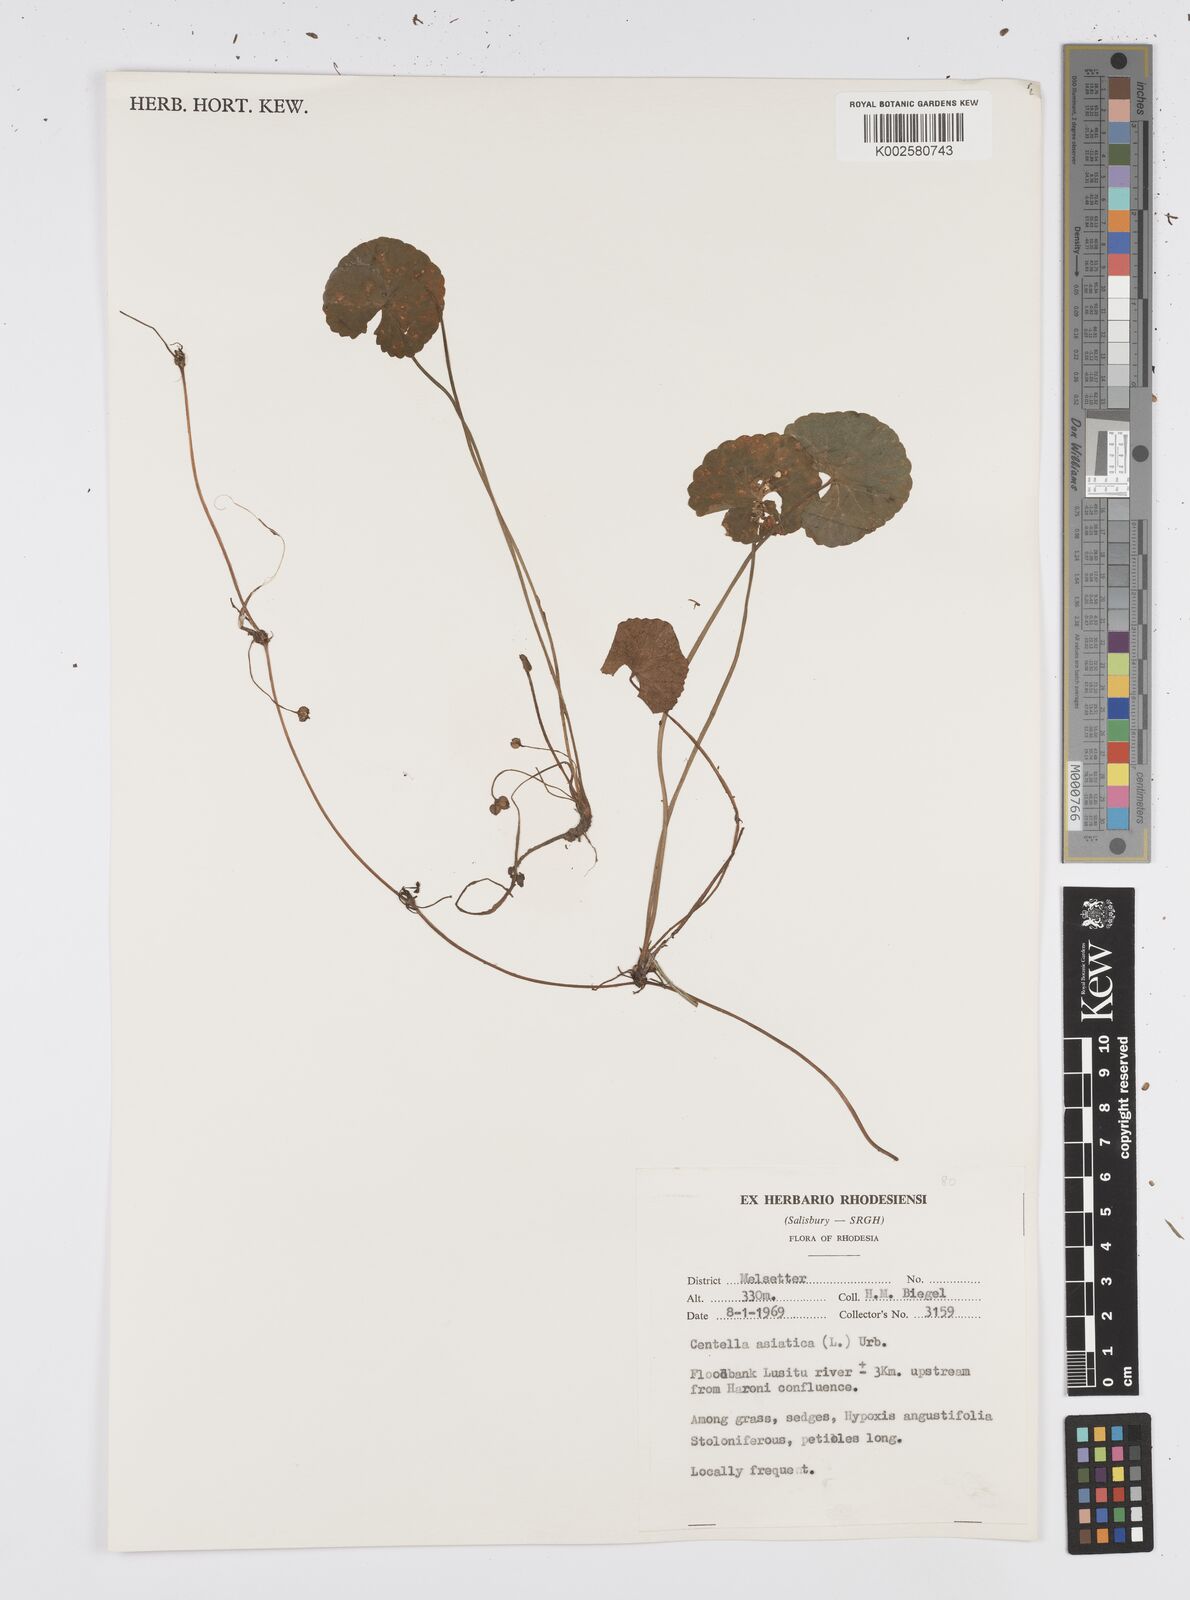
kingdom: Plantae
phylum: Tracheophyta
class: Magnoliopsida
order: Apiales
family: Apiaceae
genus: Centella
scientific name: Centella asiatica
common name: Spadeleaf
